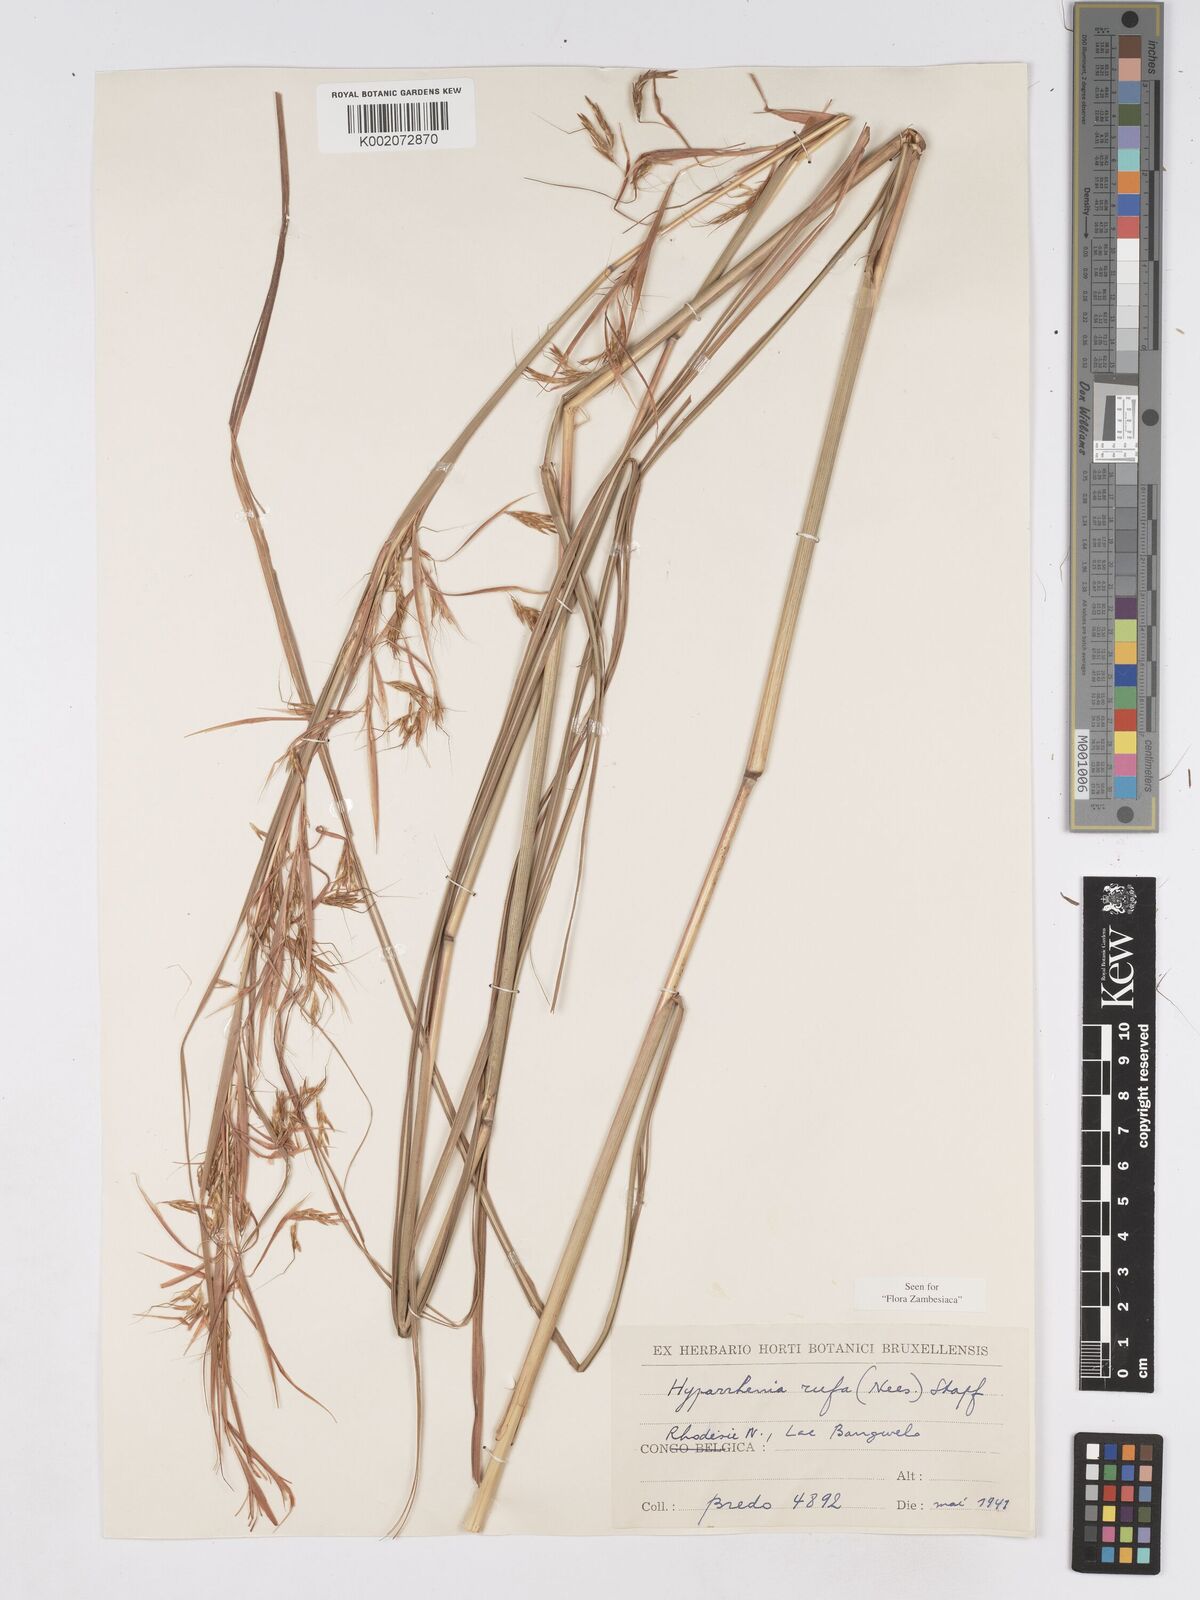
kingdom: Plantae
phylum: Tracheophyta
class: Liliopsida
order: Poales
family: Poaceae
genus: Hyparrhenia
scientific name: Hyparrhenia rufa
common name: Jaraguagrass
